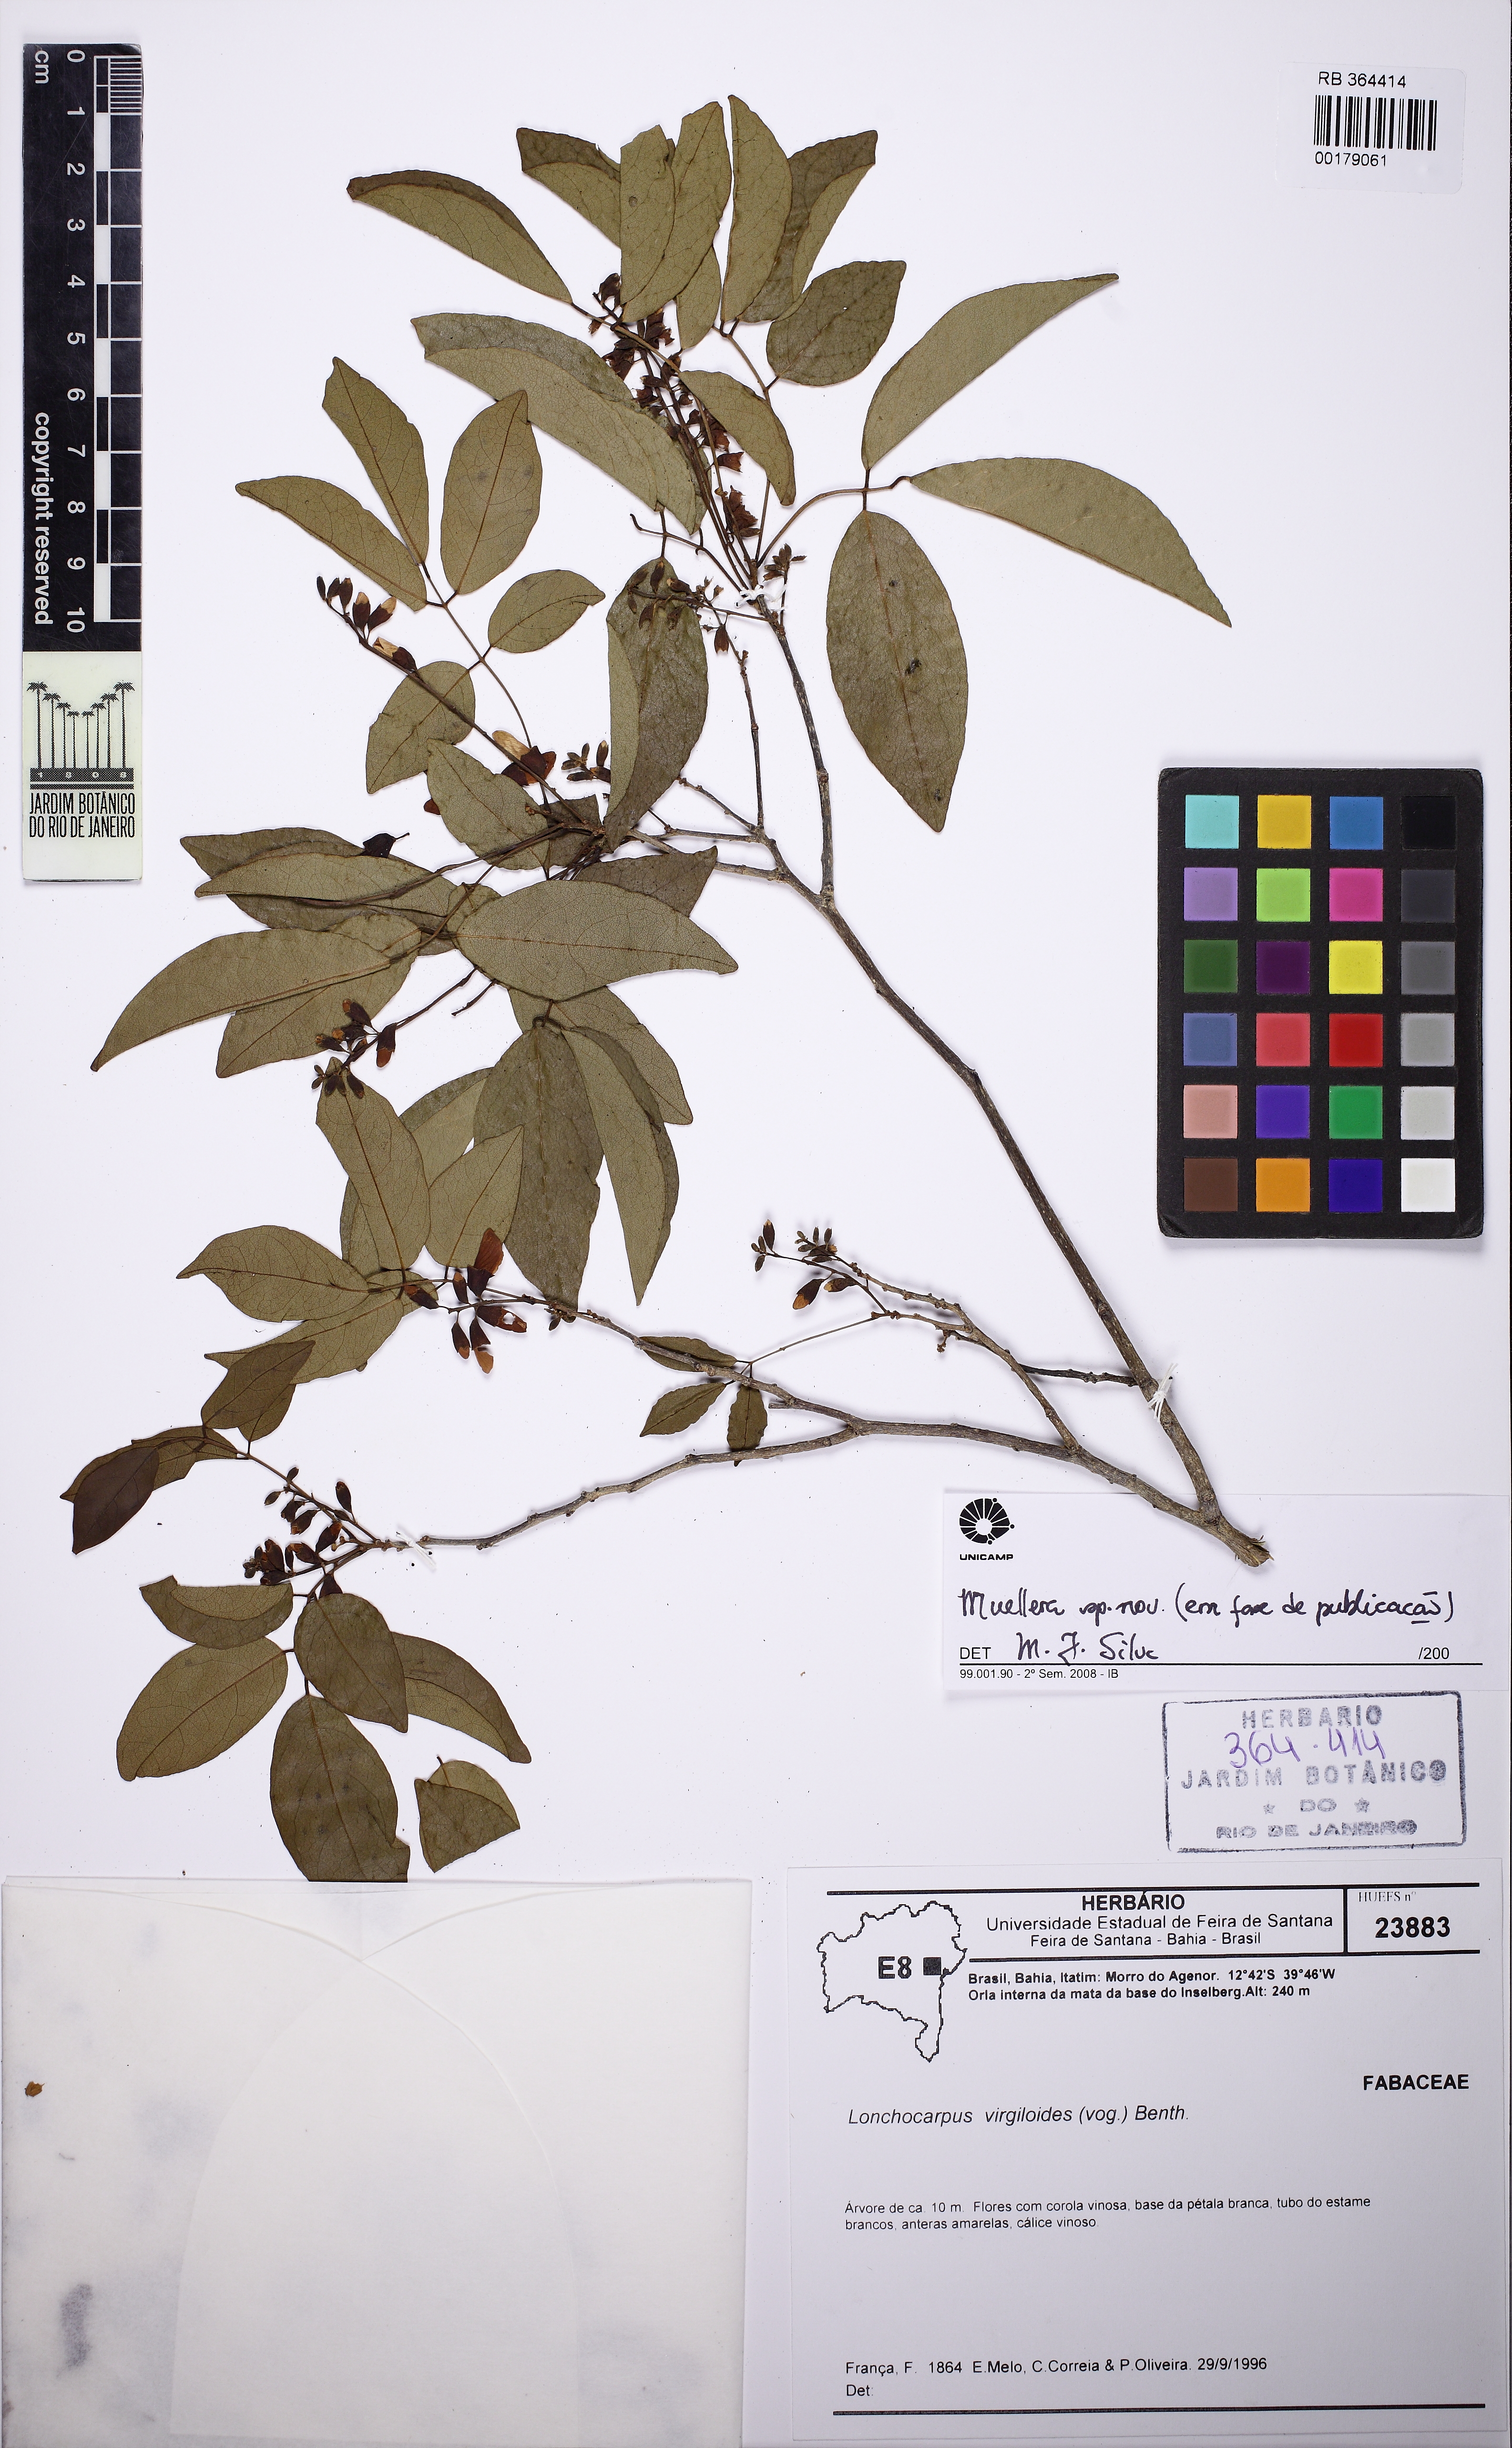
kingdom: Plantae
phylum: Tracheophyta
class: Magnoliopsida
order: Fabales
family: Fabaceae
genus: Muellera
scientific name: Muellera
